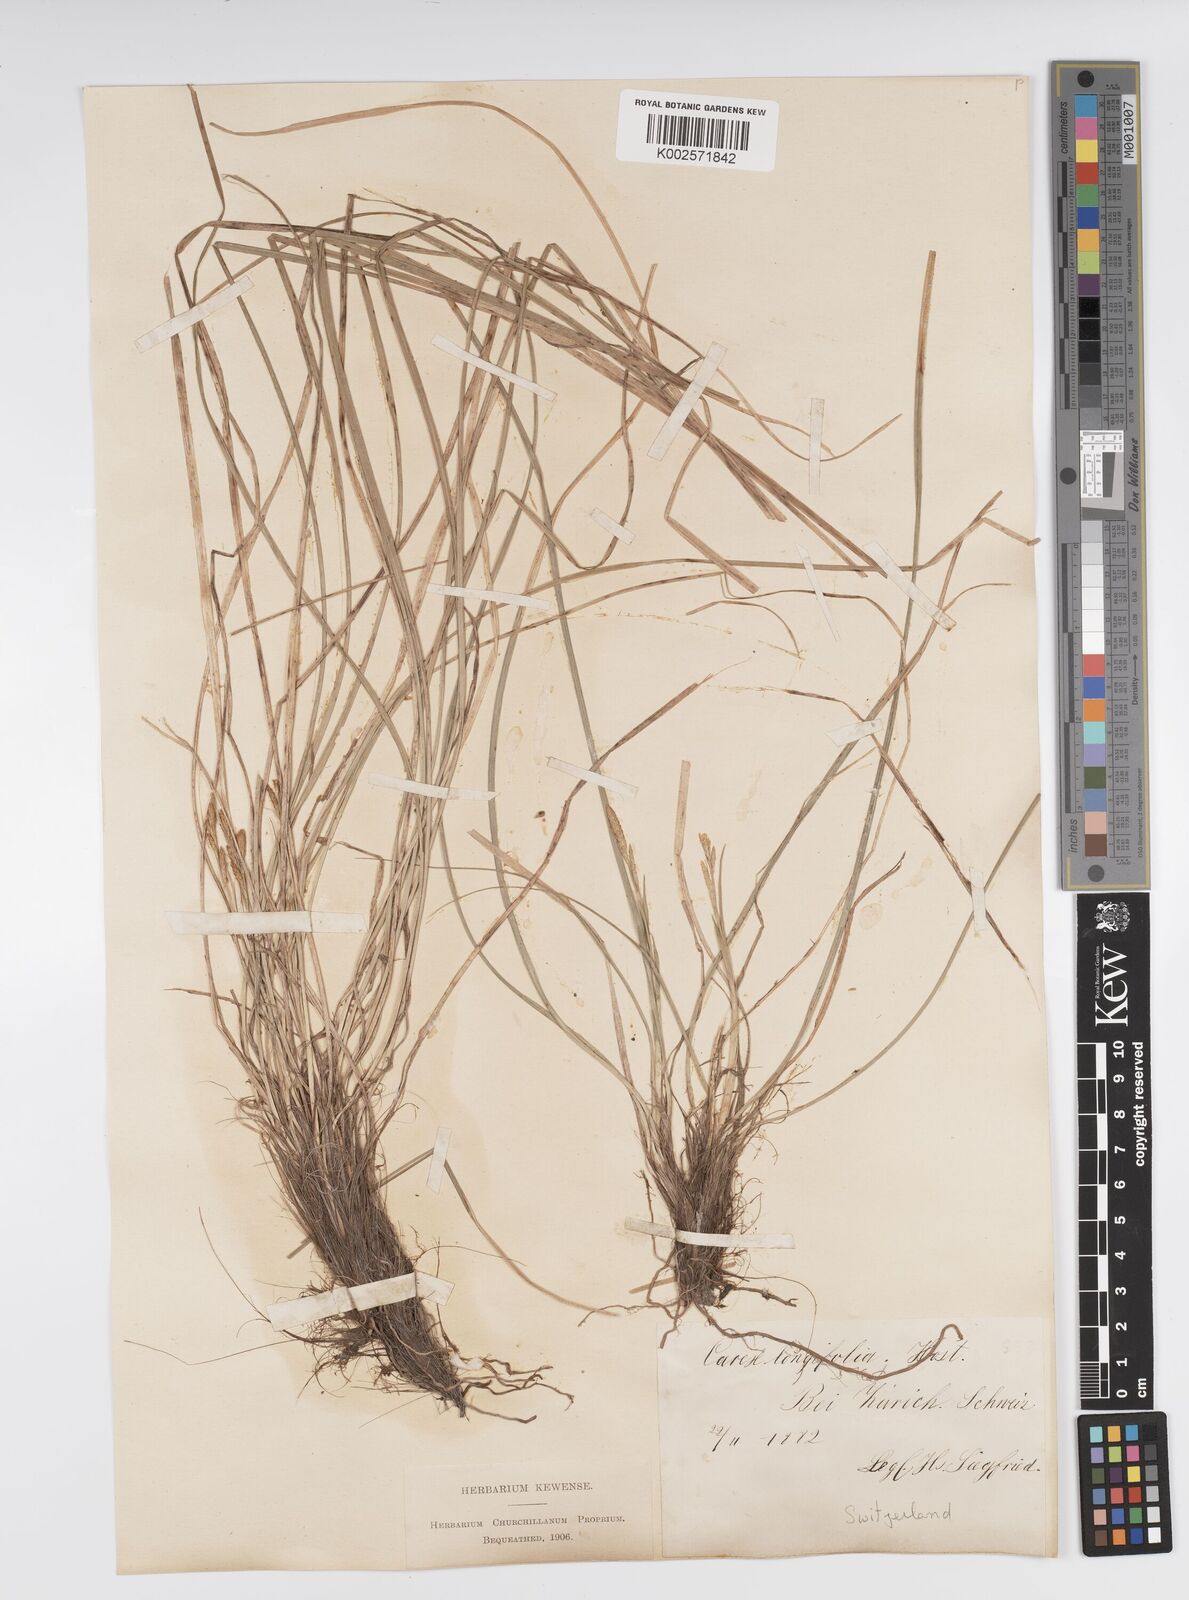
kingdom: Plantae
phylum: Tracheophyta
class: Liliopsida
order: Poales
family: Cyperaceae
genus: Carex
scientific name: Carex umbrosa
